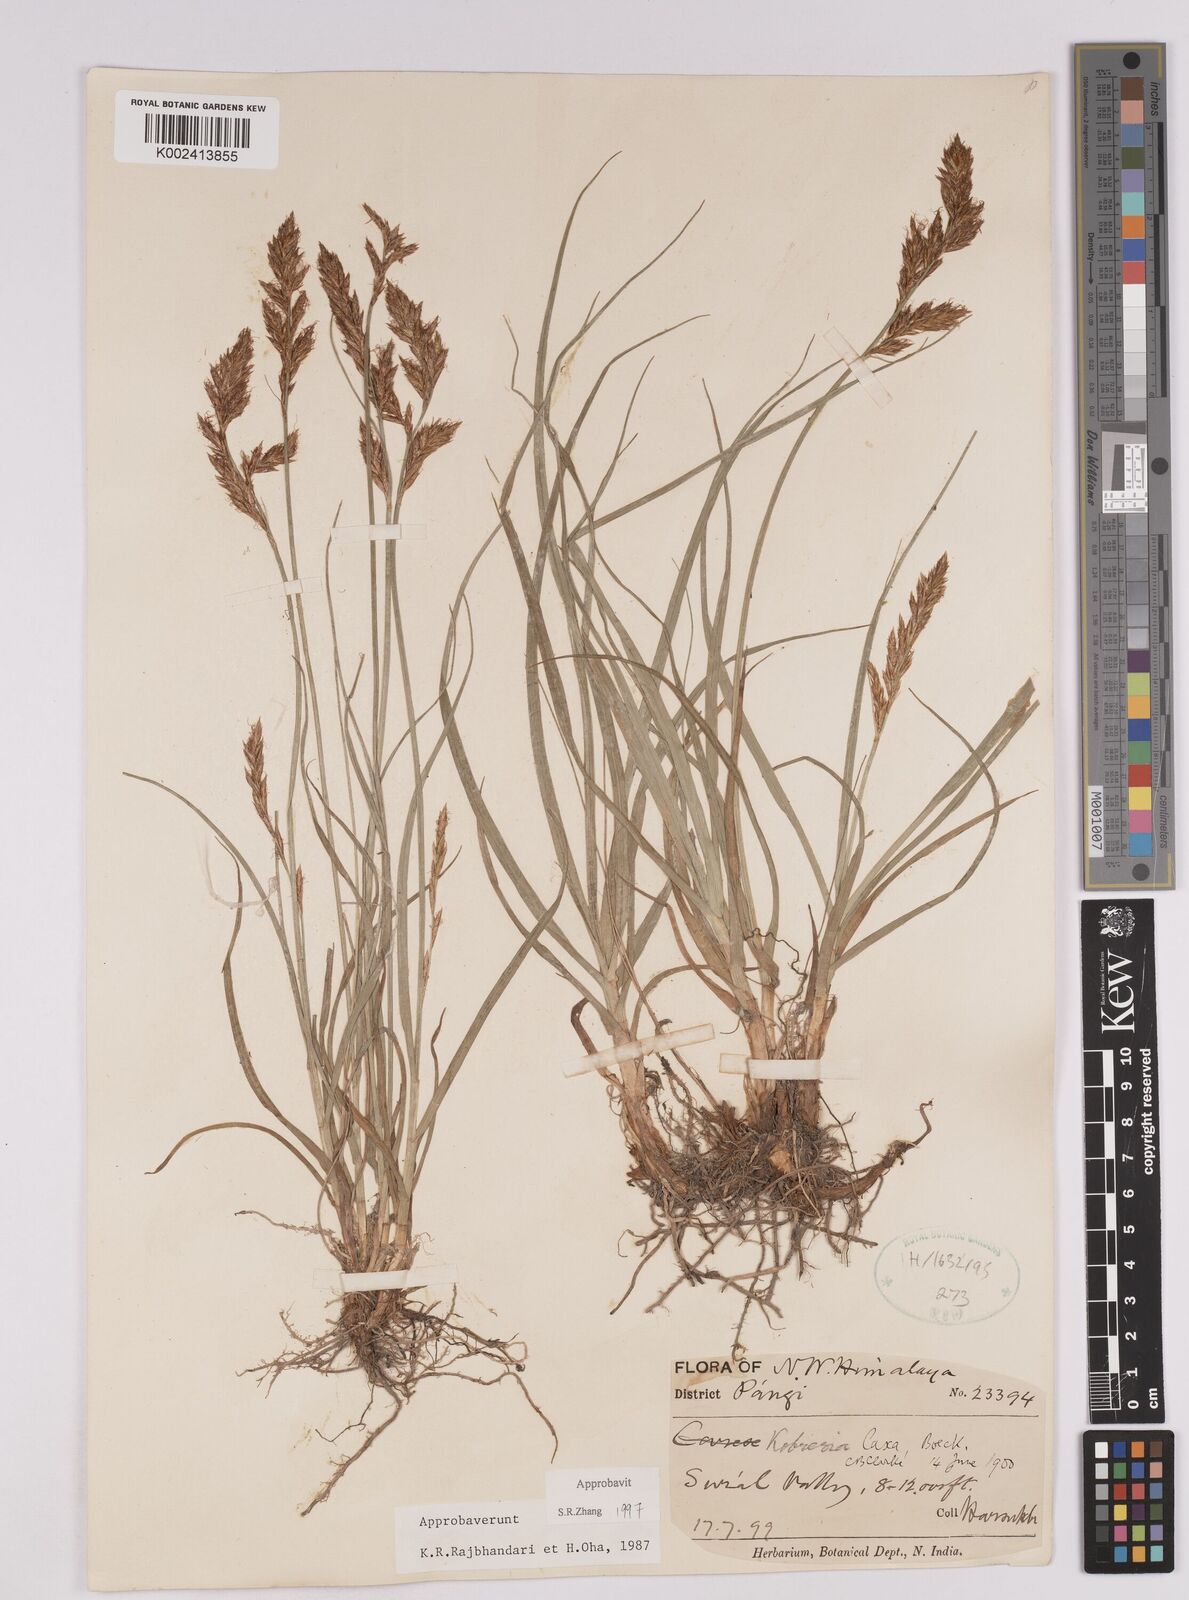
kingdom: Plantae
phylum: Tracheophyta
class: Liliopsida
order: Poales
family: Cyperaceae
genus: Carex
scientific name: Carex pseudolaxa
